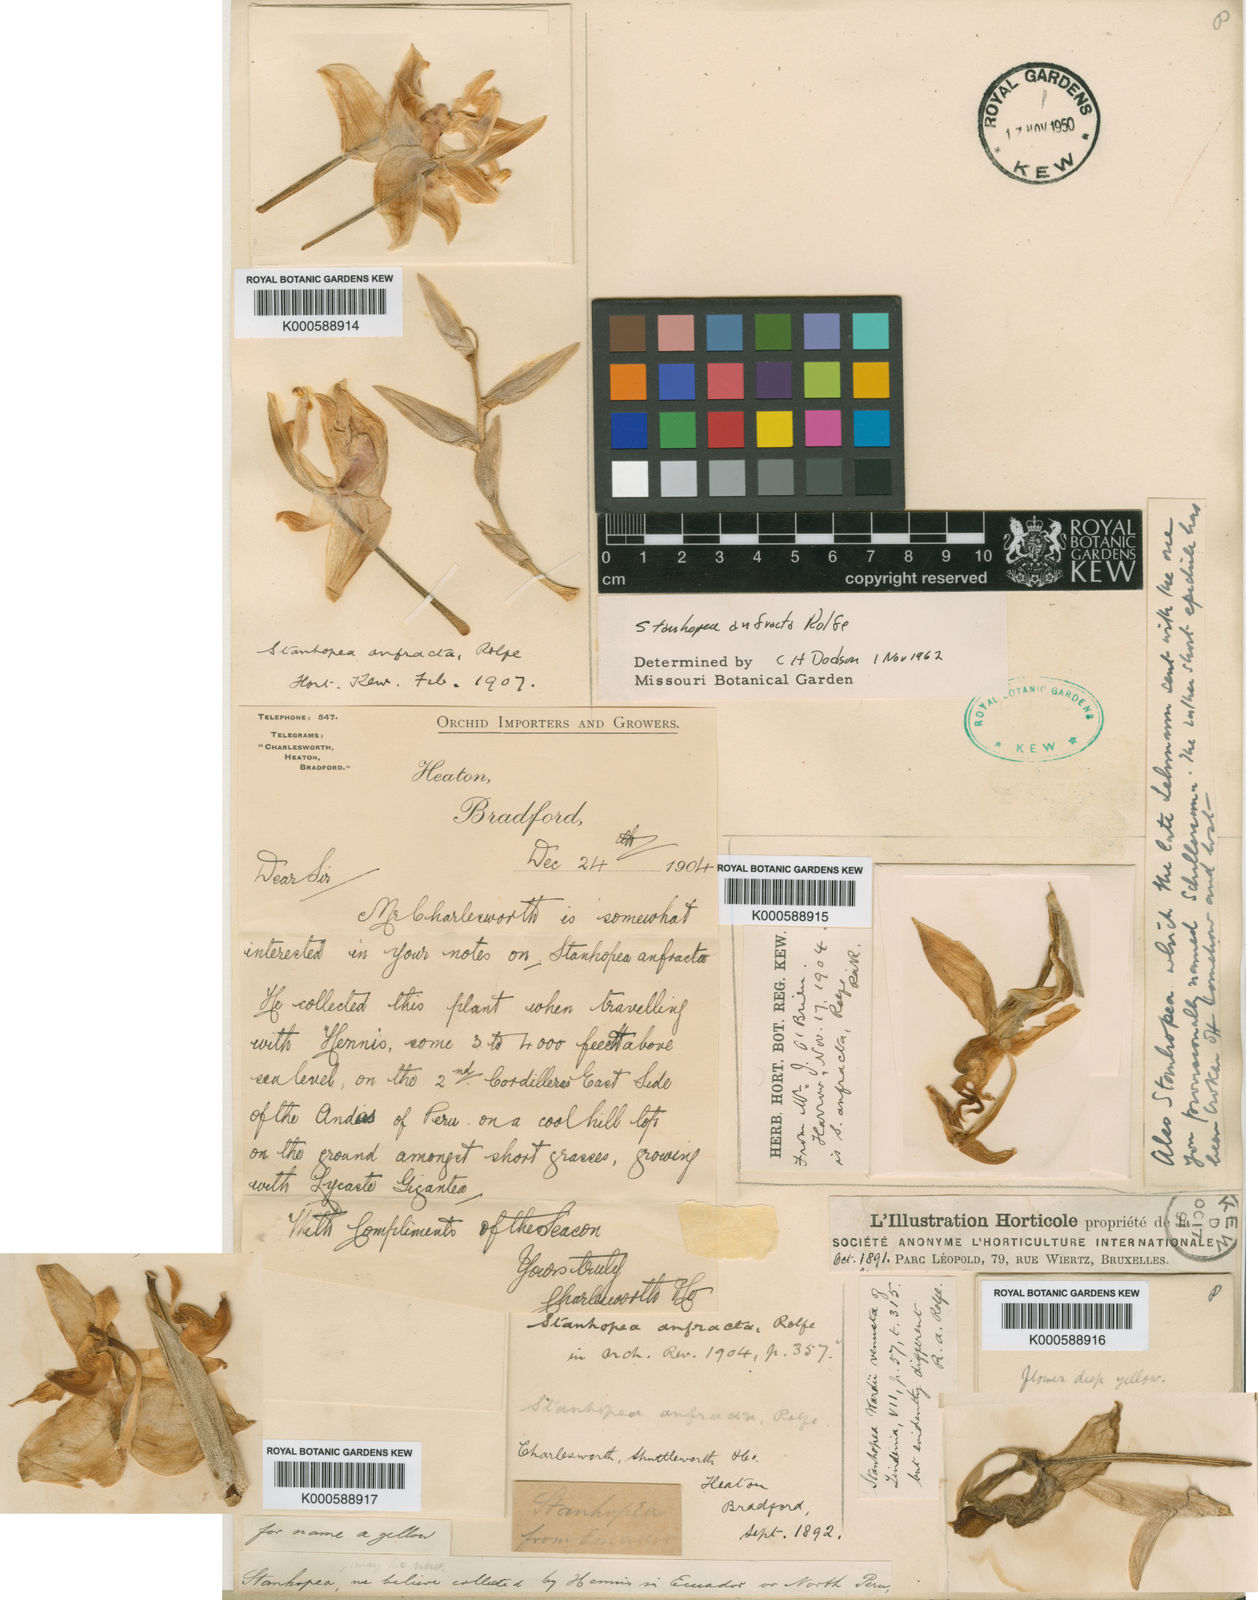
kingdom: Plantae
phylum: Tracheophyta
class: Liliopsida
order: Asparagales
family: Orchidaceae
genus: Stanhopea
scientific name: Stanhopea anfracta
